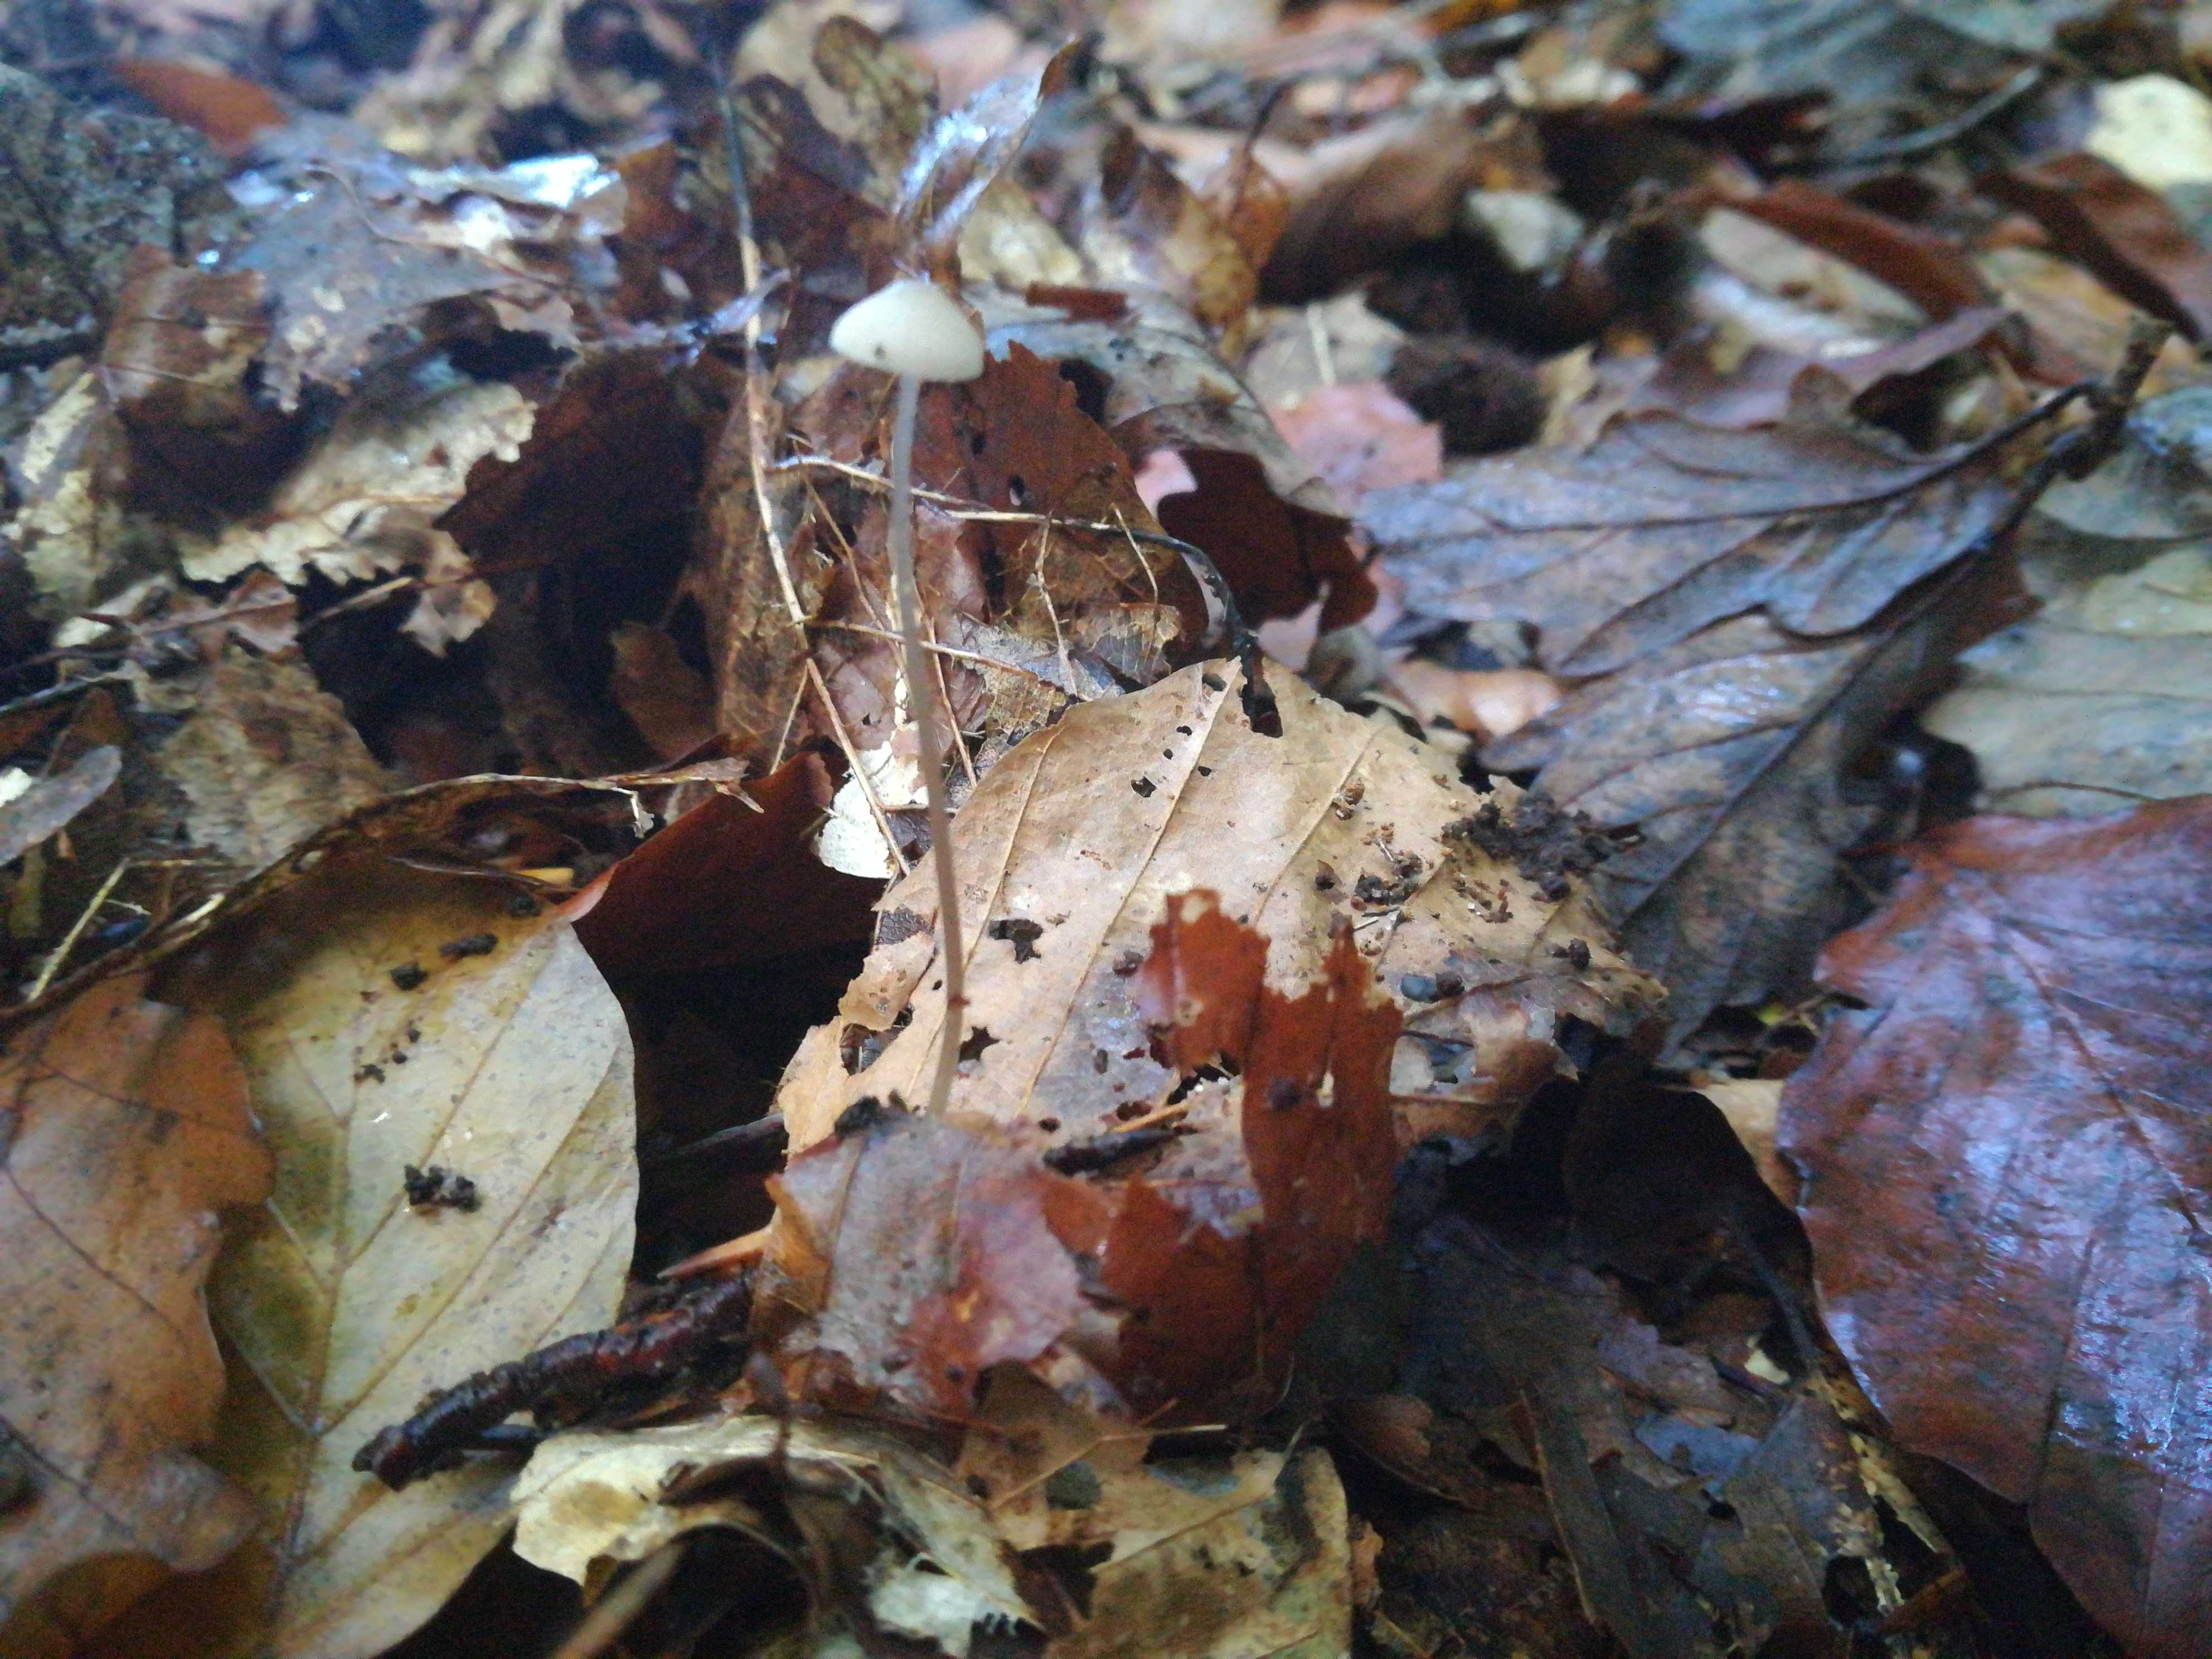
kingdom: Fungi
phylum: Basidiomycota
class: Agaricomycetes
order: Agaricales
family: Mycenaceae
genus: Mycena
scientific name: Mycena vitilis
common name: blankstokket huesvamp
